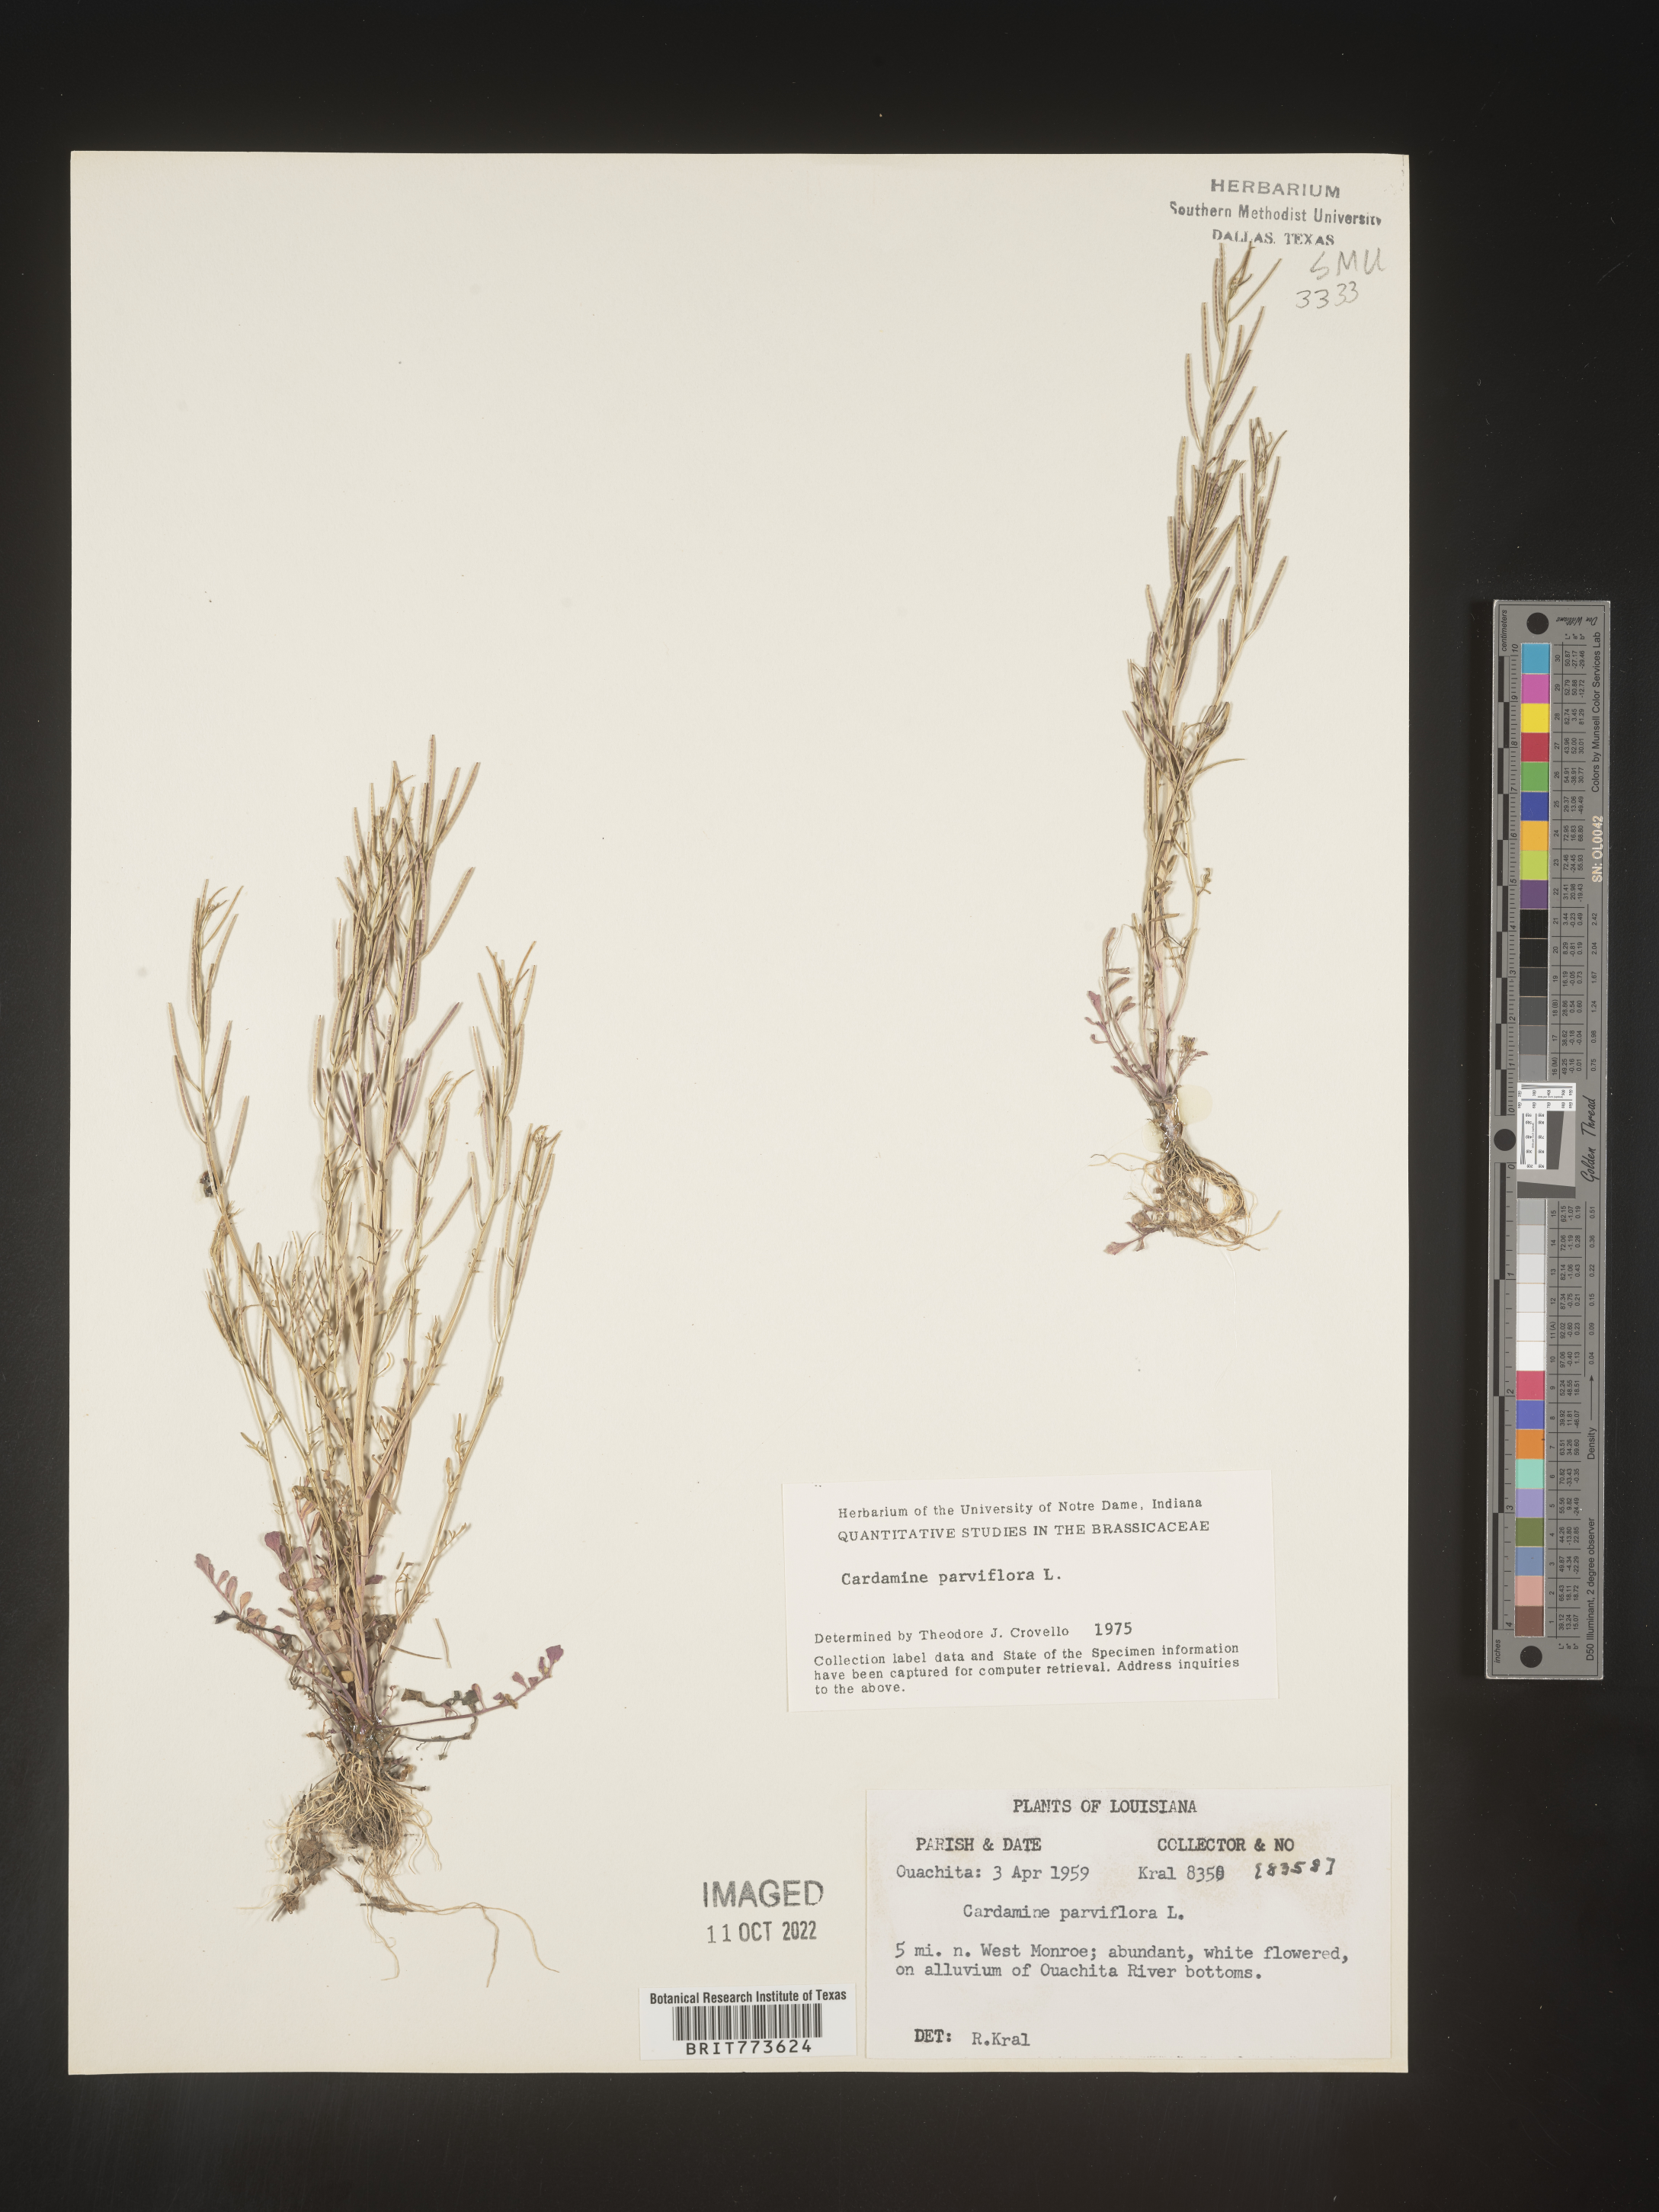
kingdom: Plantae
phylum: Tracheophyta
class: Magnoliopsida
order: Brassicales
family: Brassicaceae
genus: Cardamine
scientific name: Cardamine parviflora
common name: Sand bittercress
